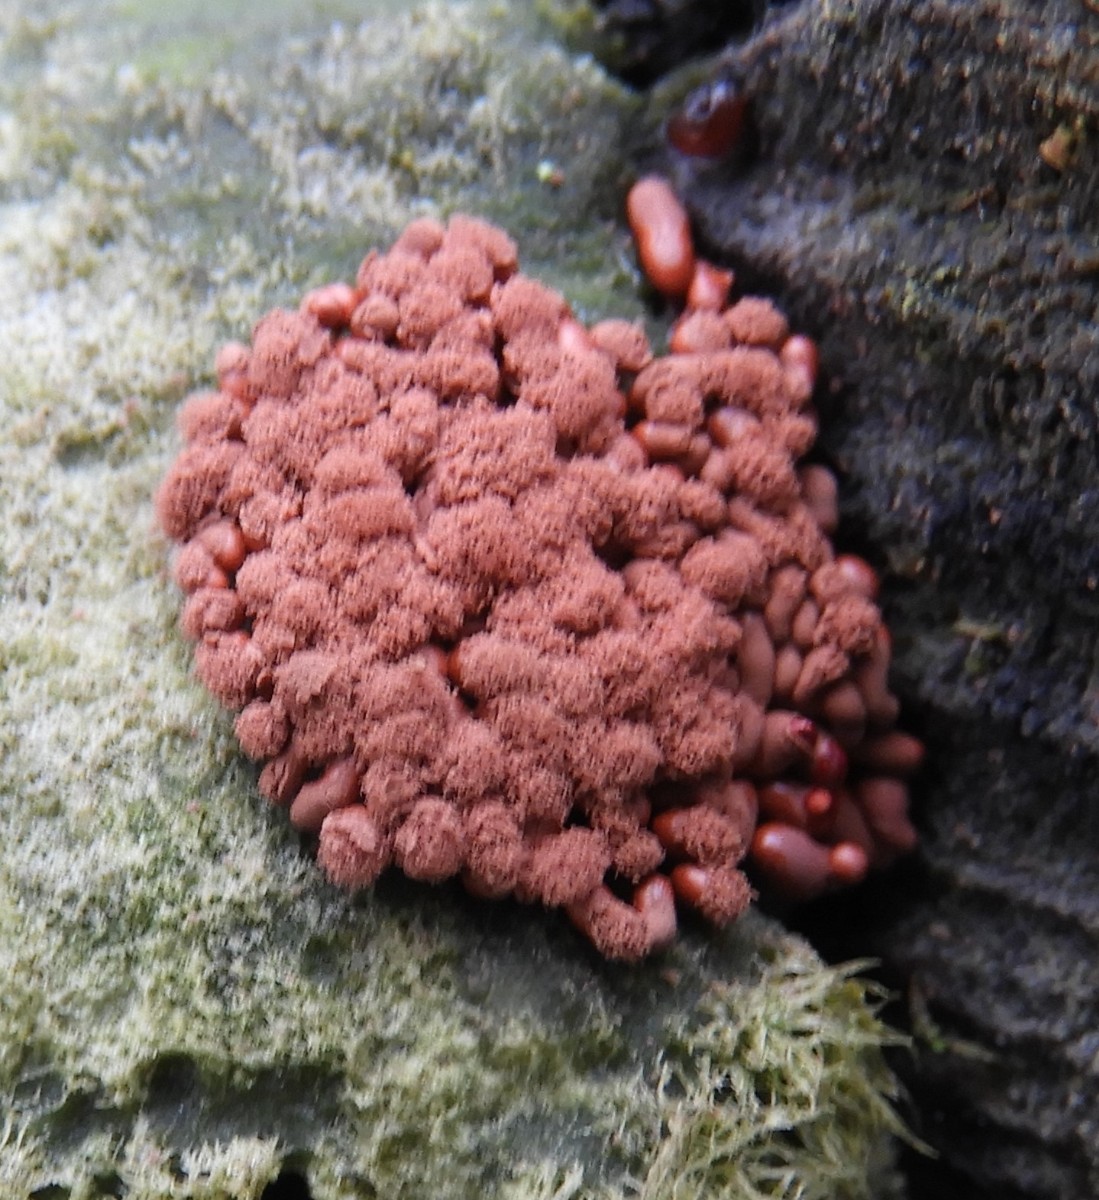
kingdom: Protozoa
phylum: Mycetozoa
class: Myxomycetes
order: Trichiales
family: Arcyriaceae
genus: Arcyria
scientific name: Arcyria affinis
